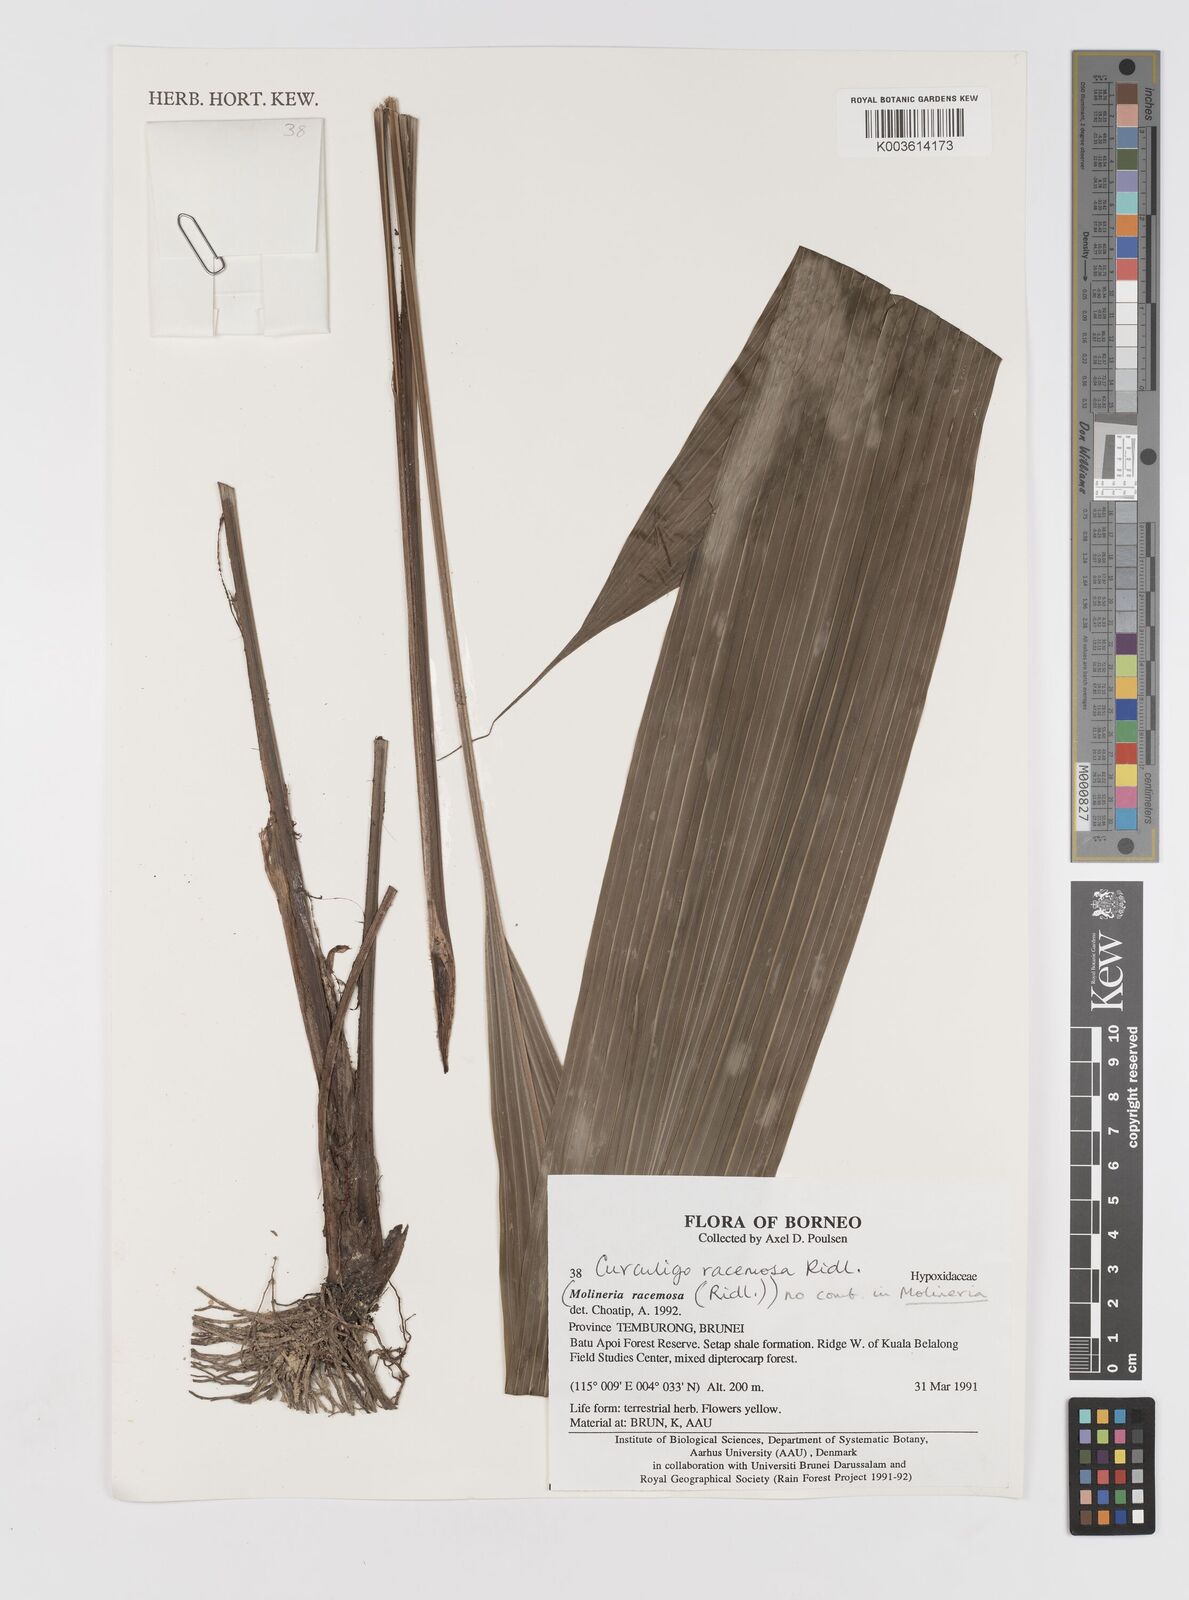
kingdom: Plantae
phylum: Tracheophyta
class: Liliopsida
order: Asparagales
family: Hypoxidaceae
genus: Curculigo
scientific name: Curculigo racemosa
